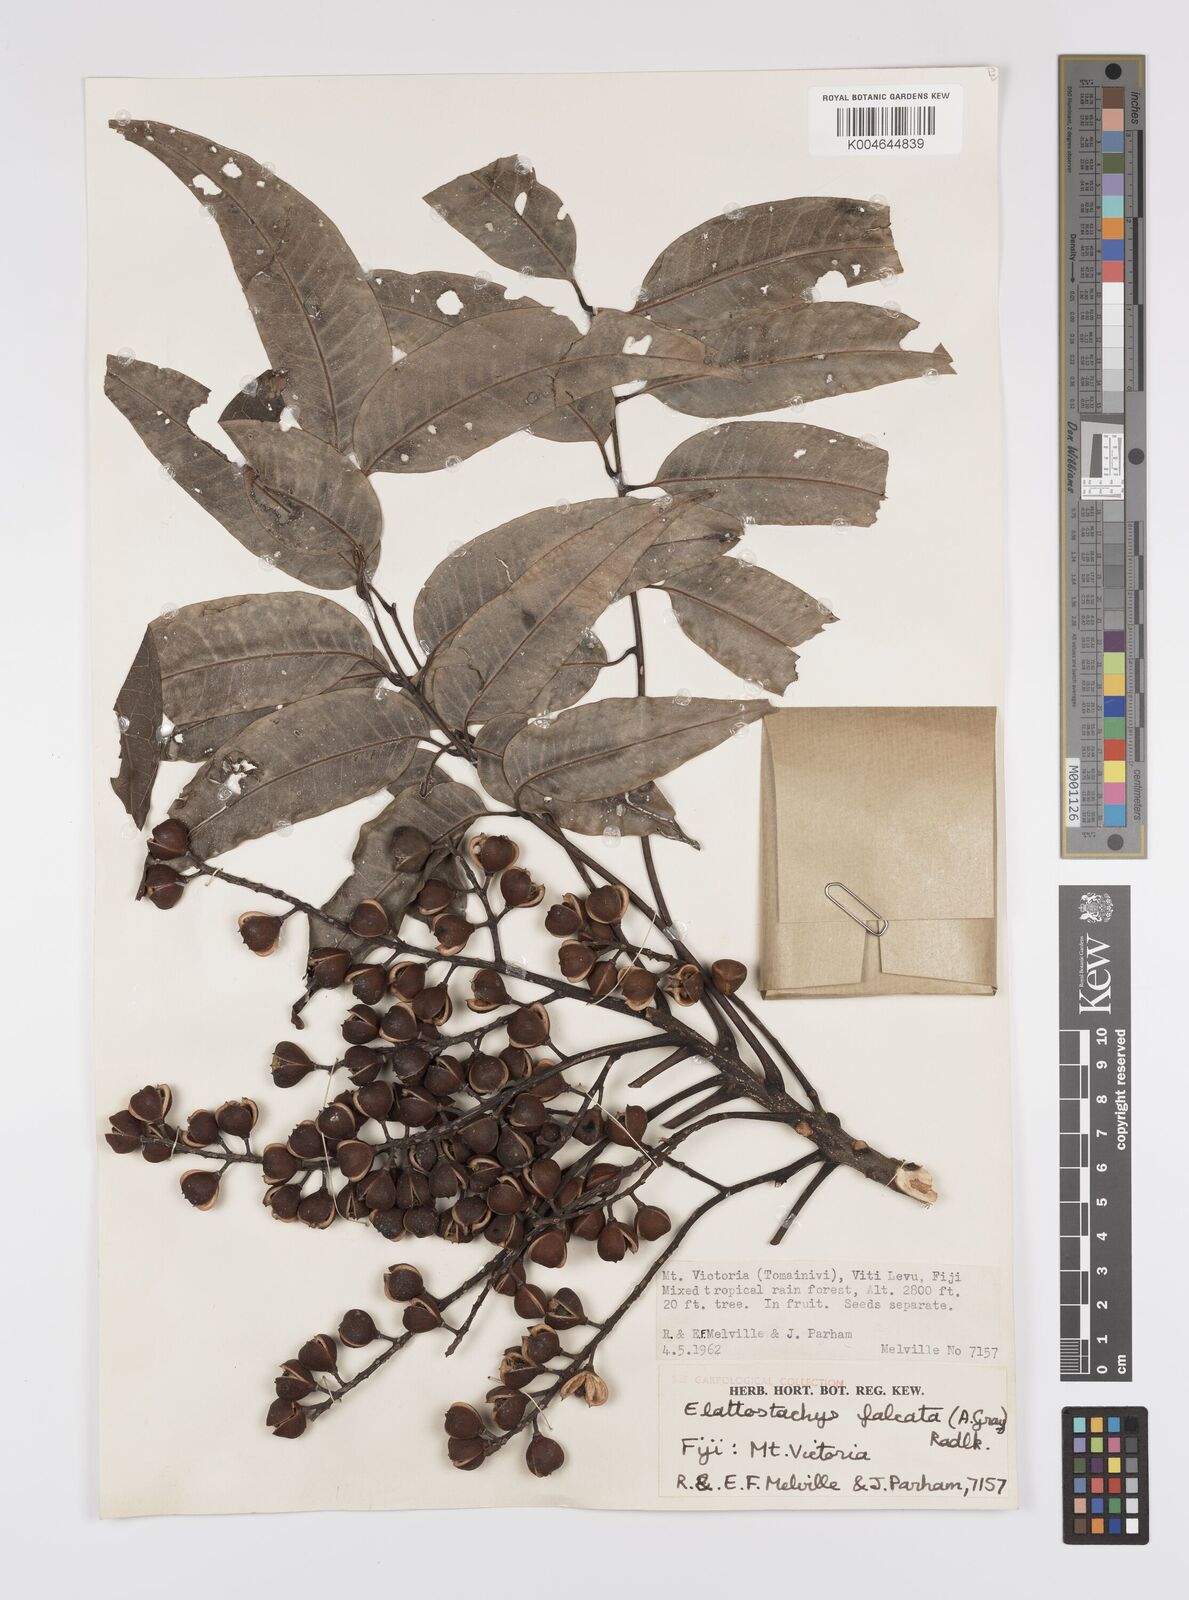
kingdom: Plantae
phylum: Tracheophyta
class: Magnoliopsida
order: Sapindales
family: Sapindaceae
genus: Elattostachys
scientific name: Elattostachys apetala
